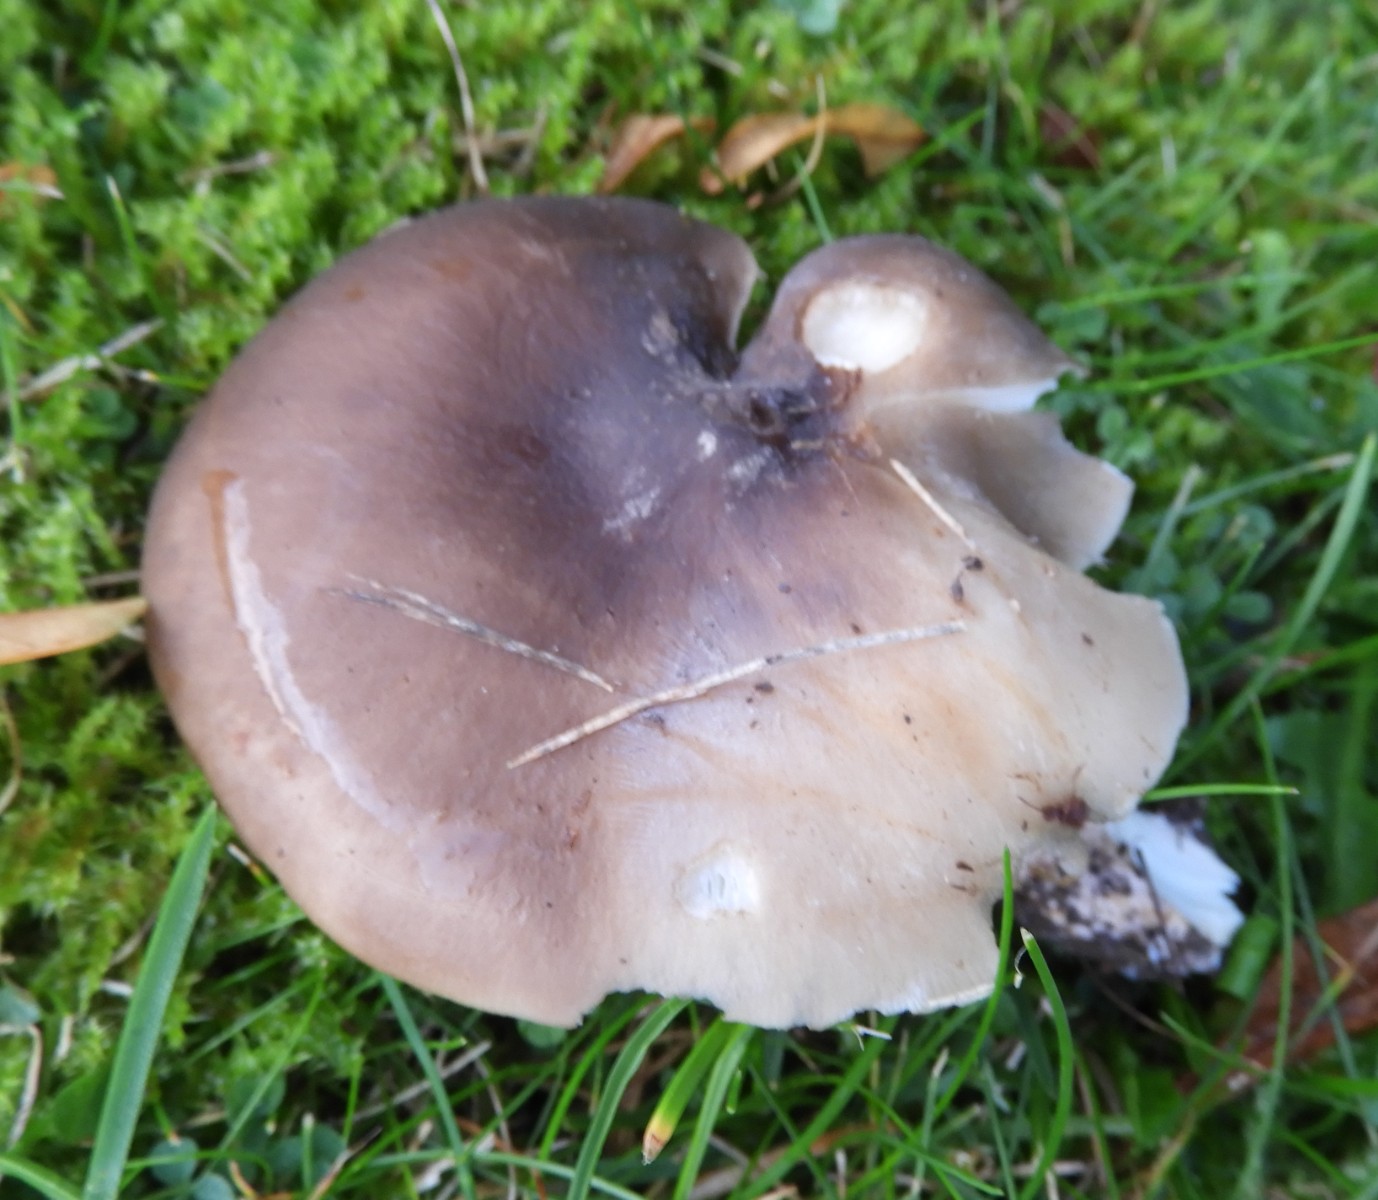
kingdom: Fungi
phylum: Basidiomycota
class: Agaricomycetes
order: Agaricales
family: Lyophyllaceae
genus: Lyophyllum
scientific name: Lyophyllum decastes
